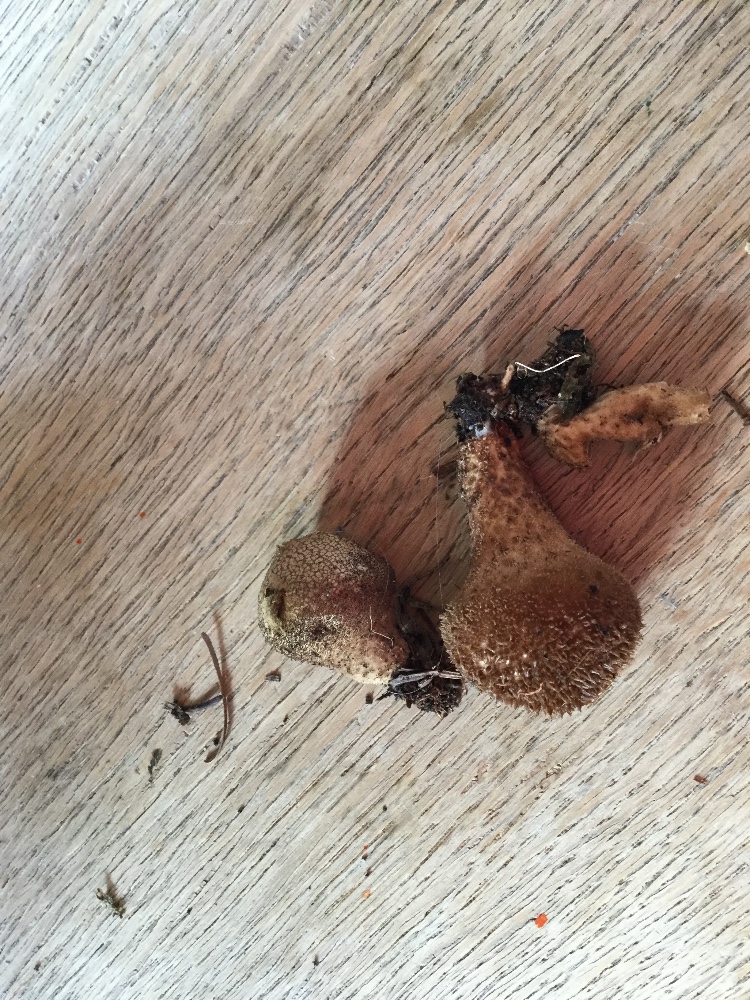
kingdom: Fungi
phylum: Basidiomycota
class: Agaricomycetes
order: Agaricales
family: Lycoperdaceae
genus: Lycoperdon
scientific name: Lycoperdon nigrescens
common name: sortagtig støvbold
